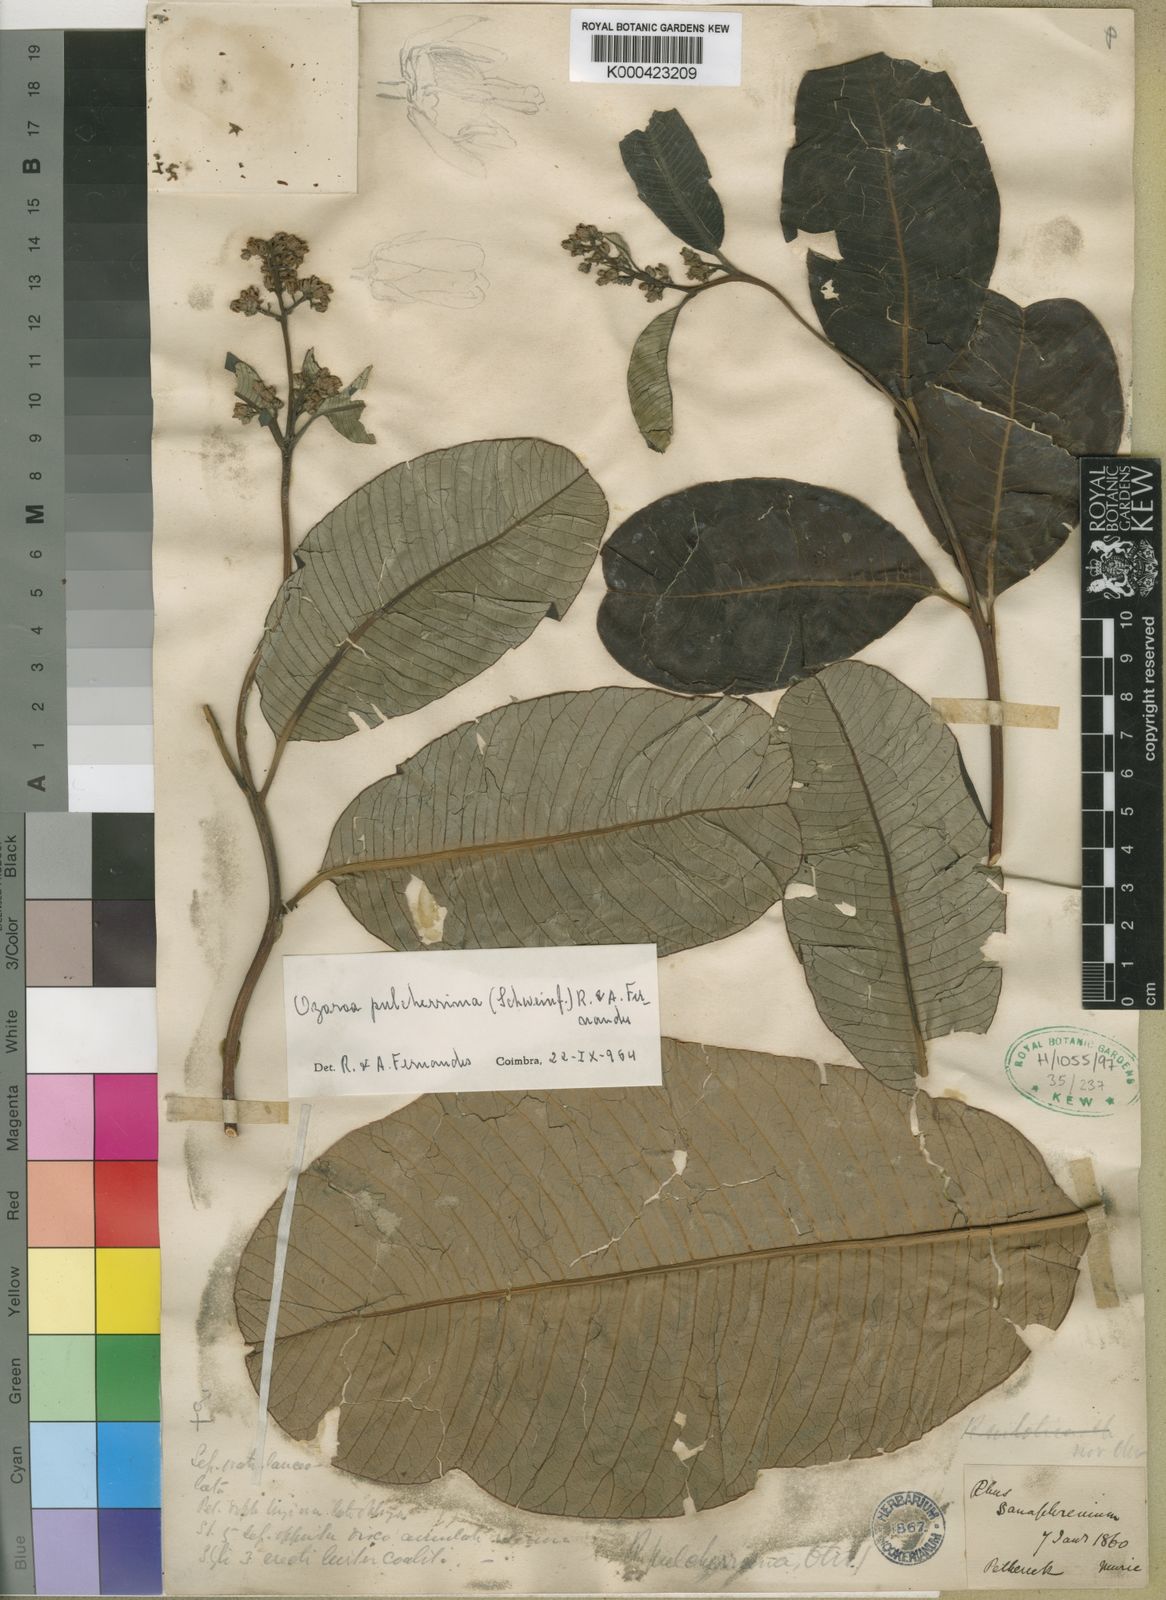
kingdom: Plantae
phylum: Tracheophyta
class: Magnoliopsida
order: Sapindales
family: Anacardiaceae
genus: Ozoroa
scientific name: Ozoroa pulcherrima
